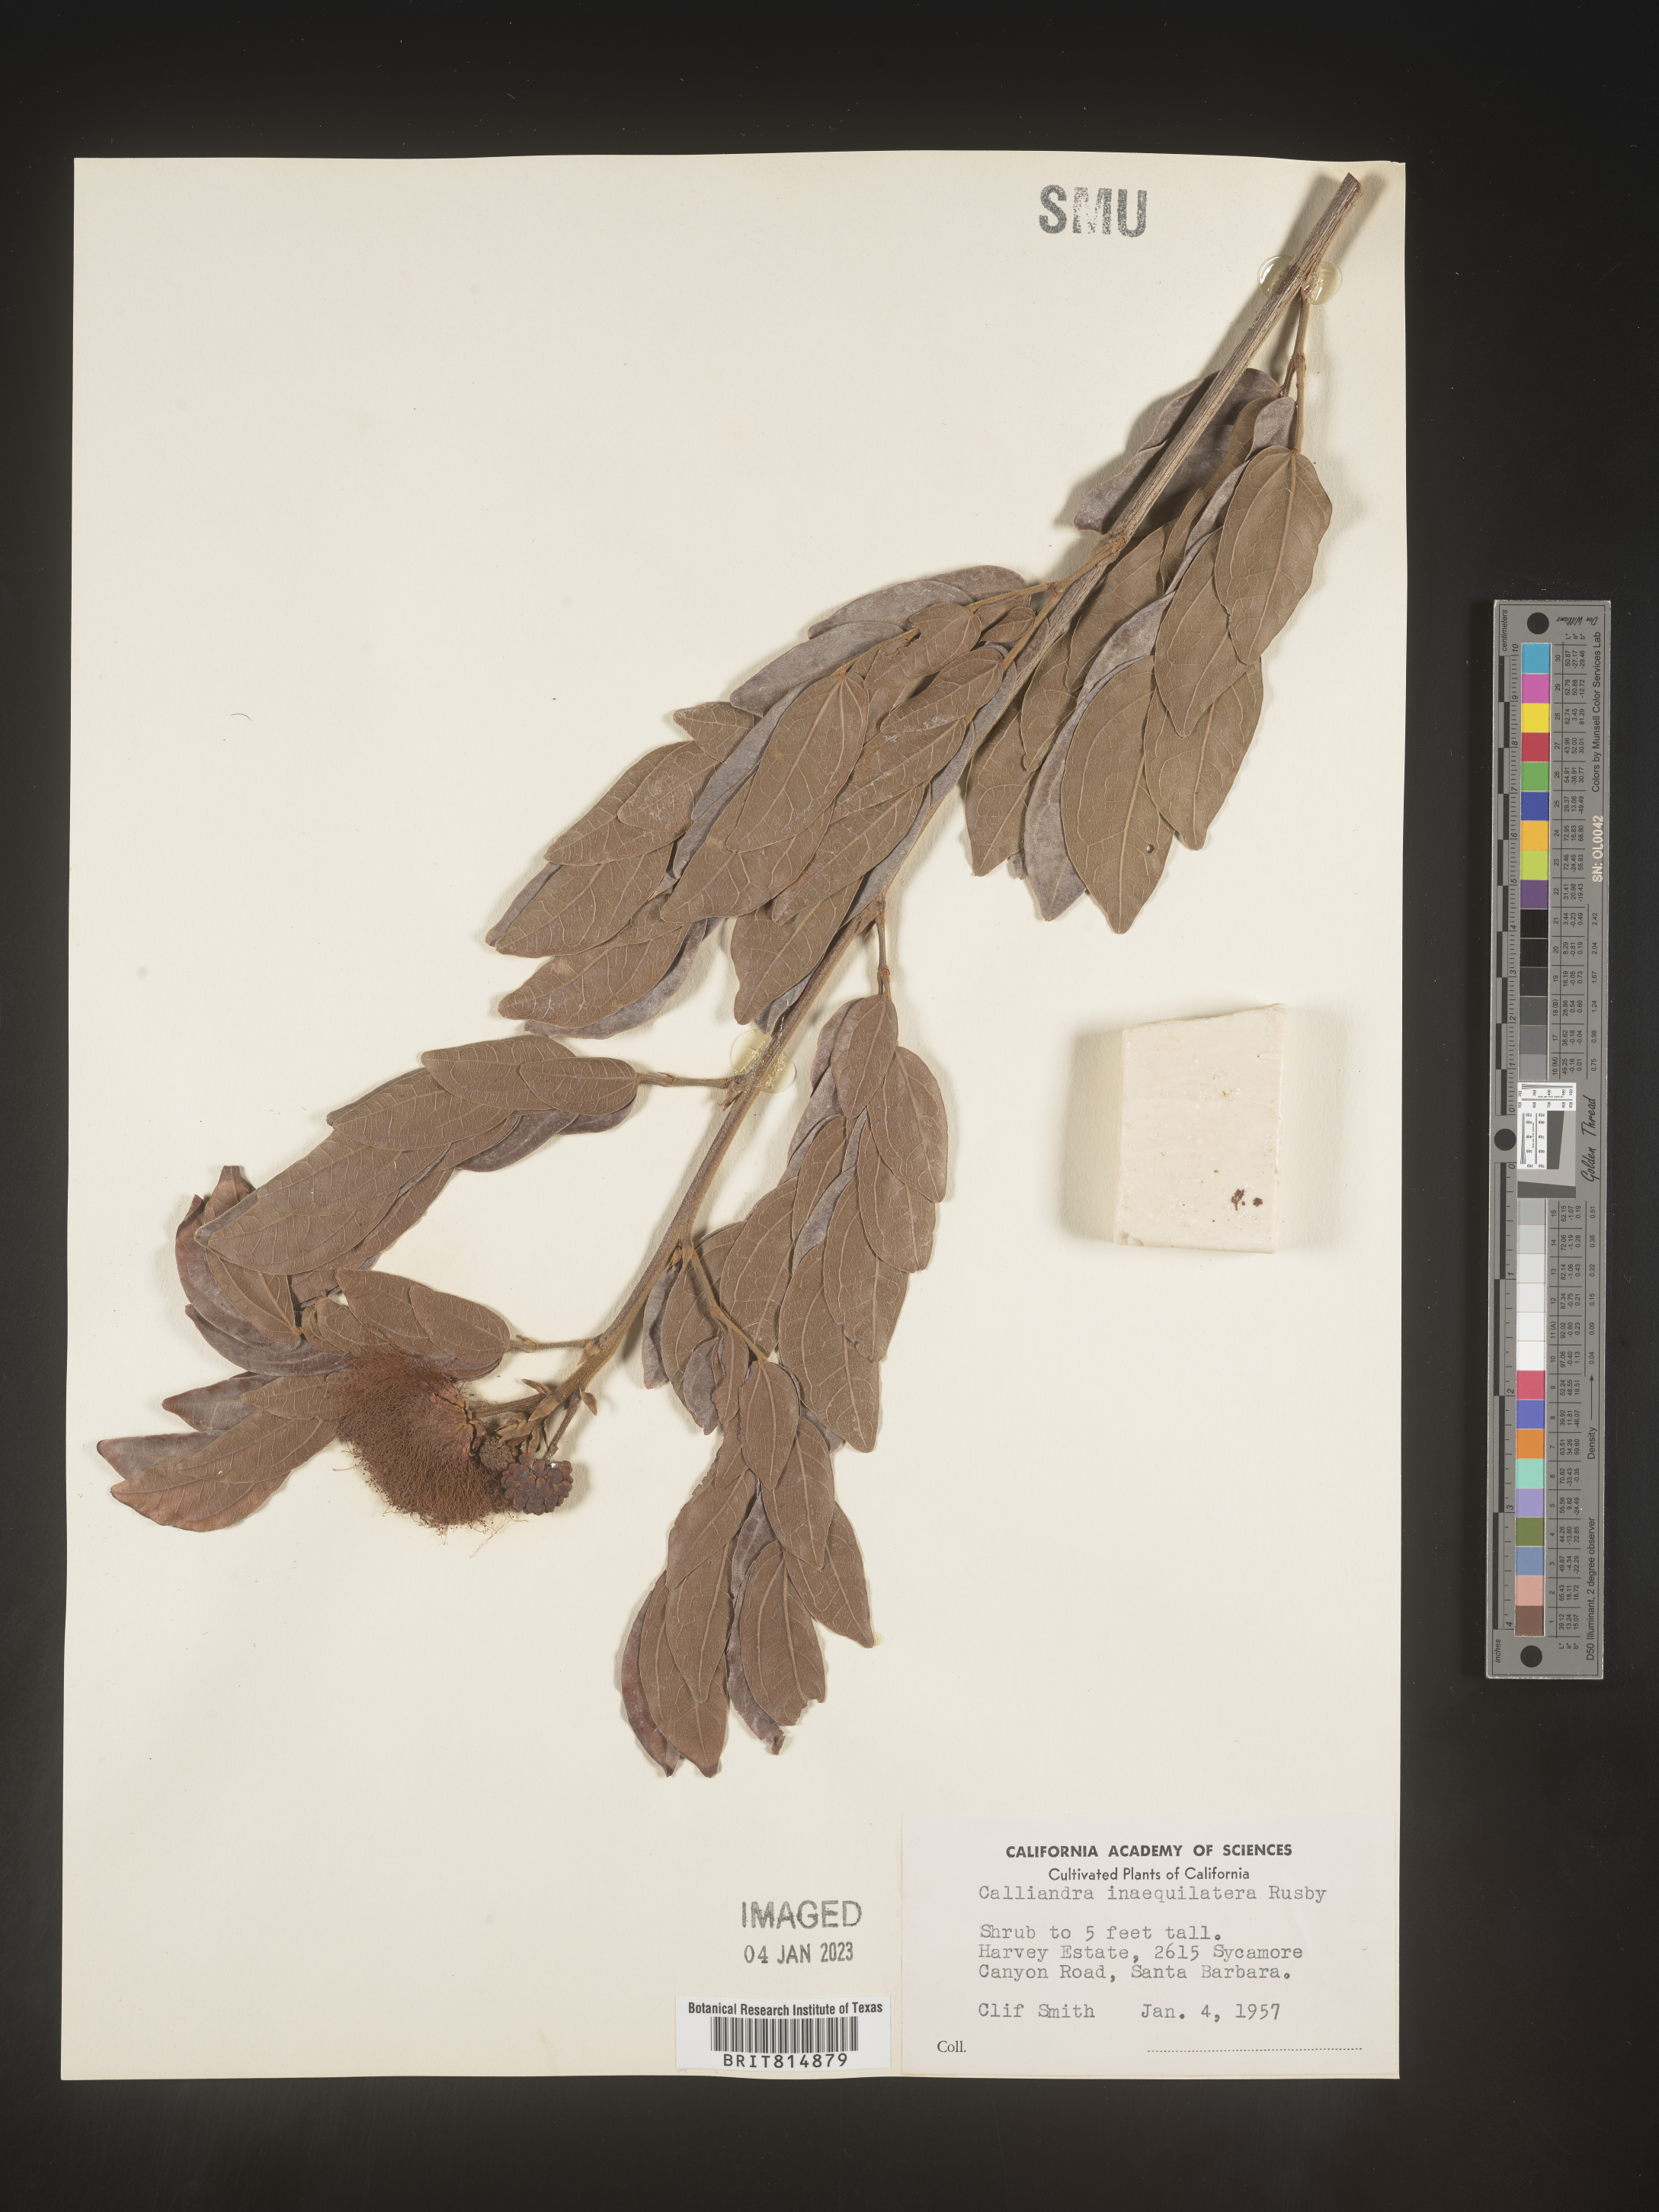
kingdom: Plantae
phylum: Tracheophyta
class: Magnoliopsida
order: Fabales
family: Fabaceae
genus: Calliandra
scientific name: Calliandra
